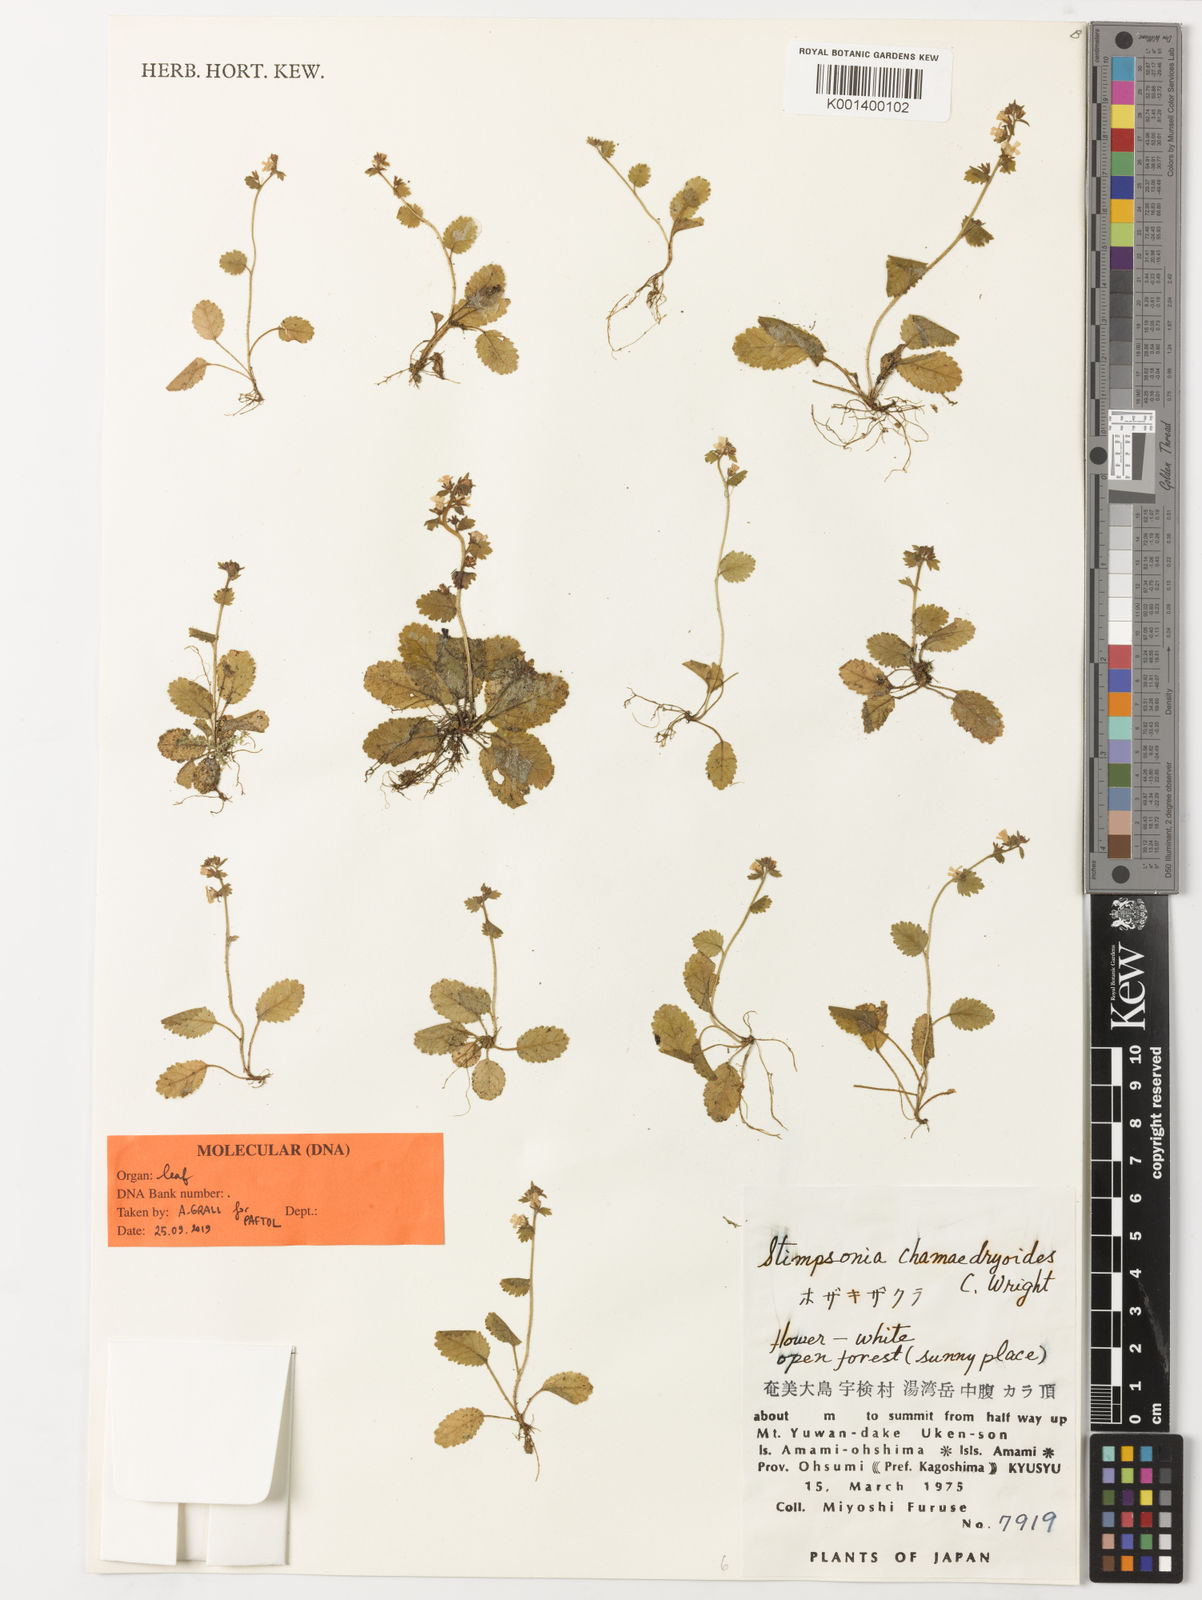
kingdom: Plantae
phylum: Tracheophyta
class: Magnoliopsida
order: Ericales
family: Primulaceae
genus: Stimpsonia
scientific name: Stimpsonia chamaedryoides
